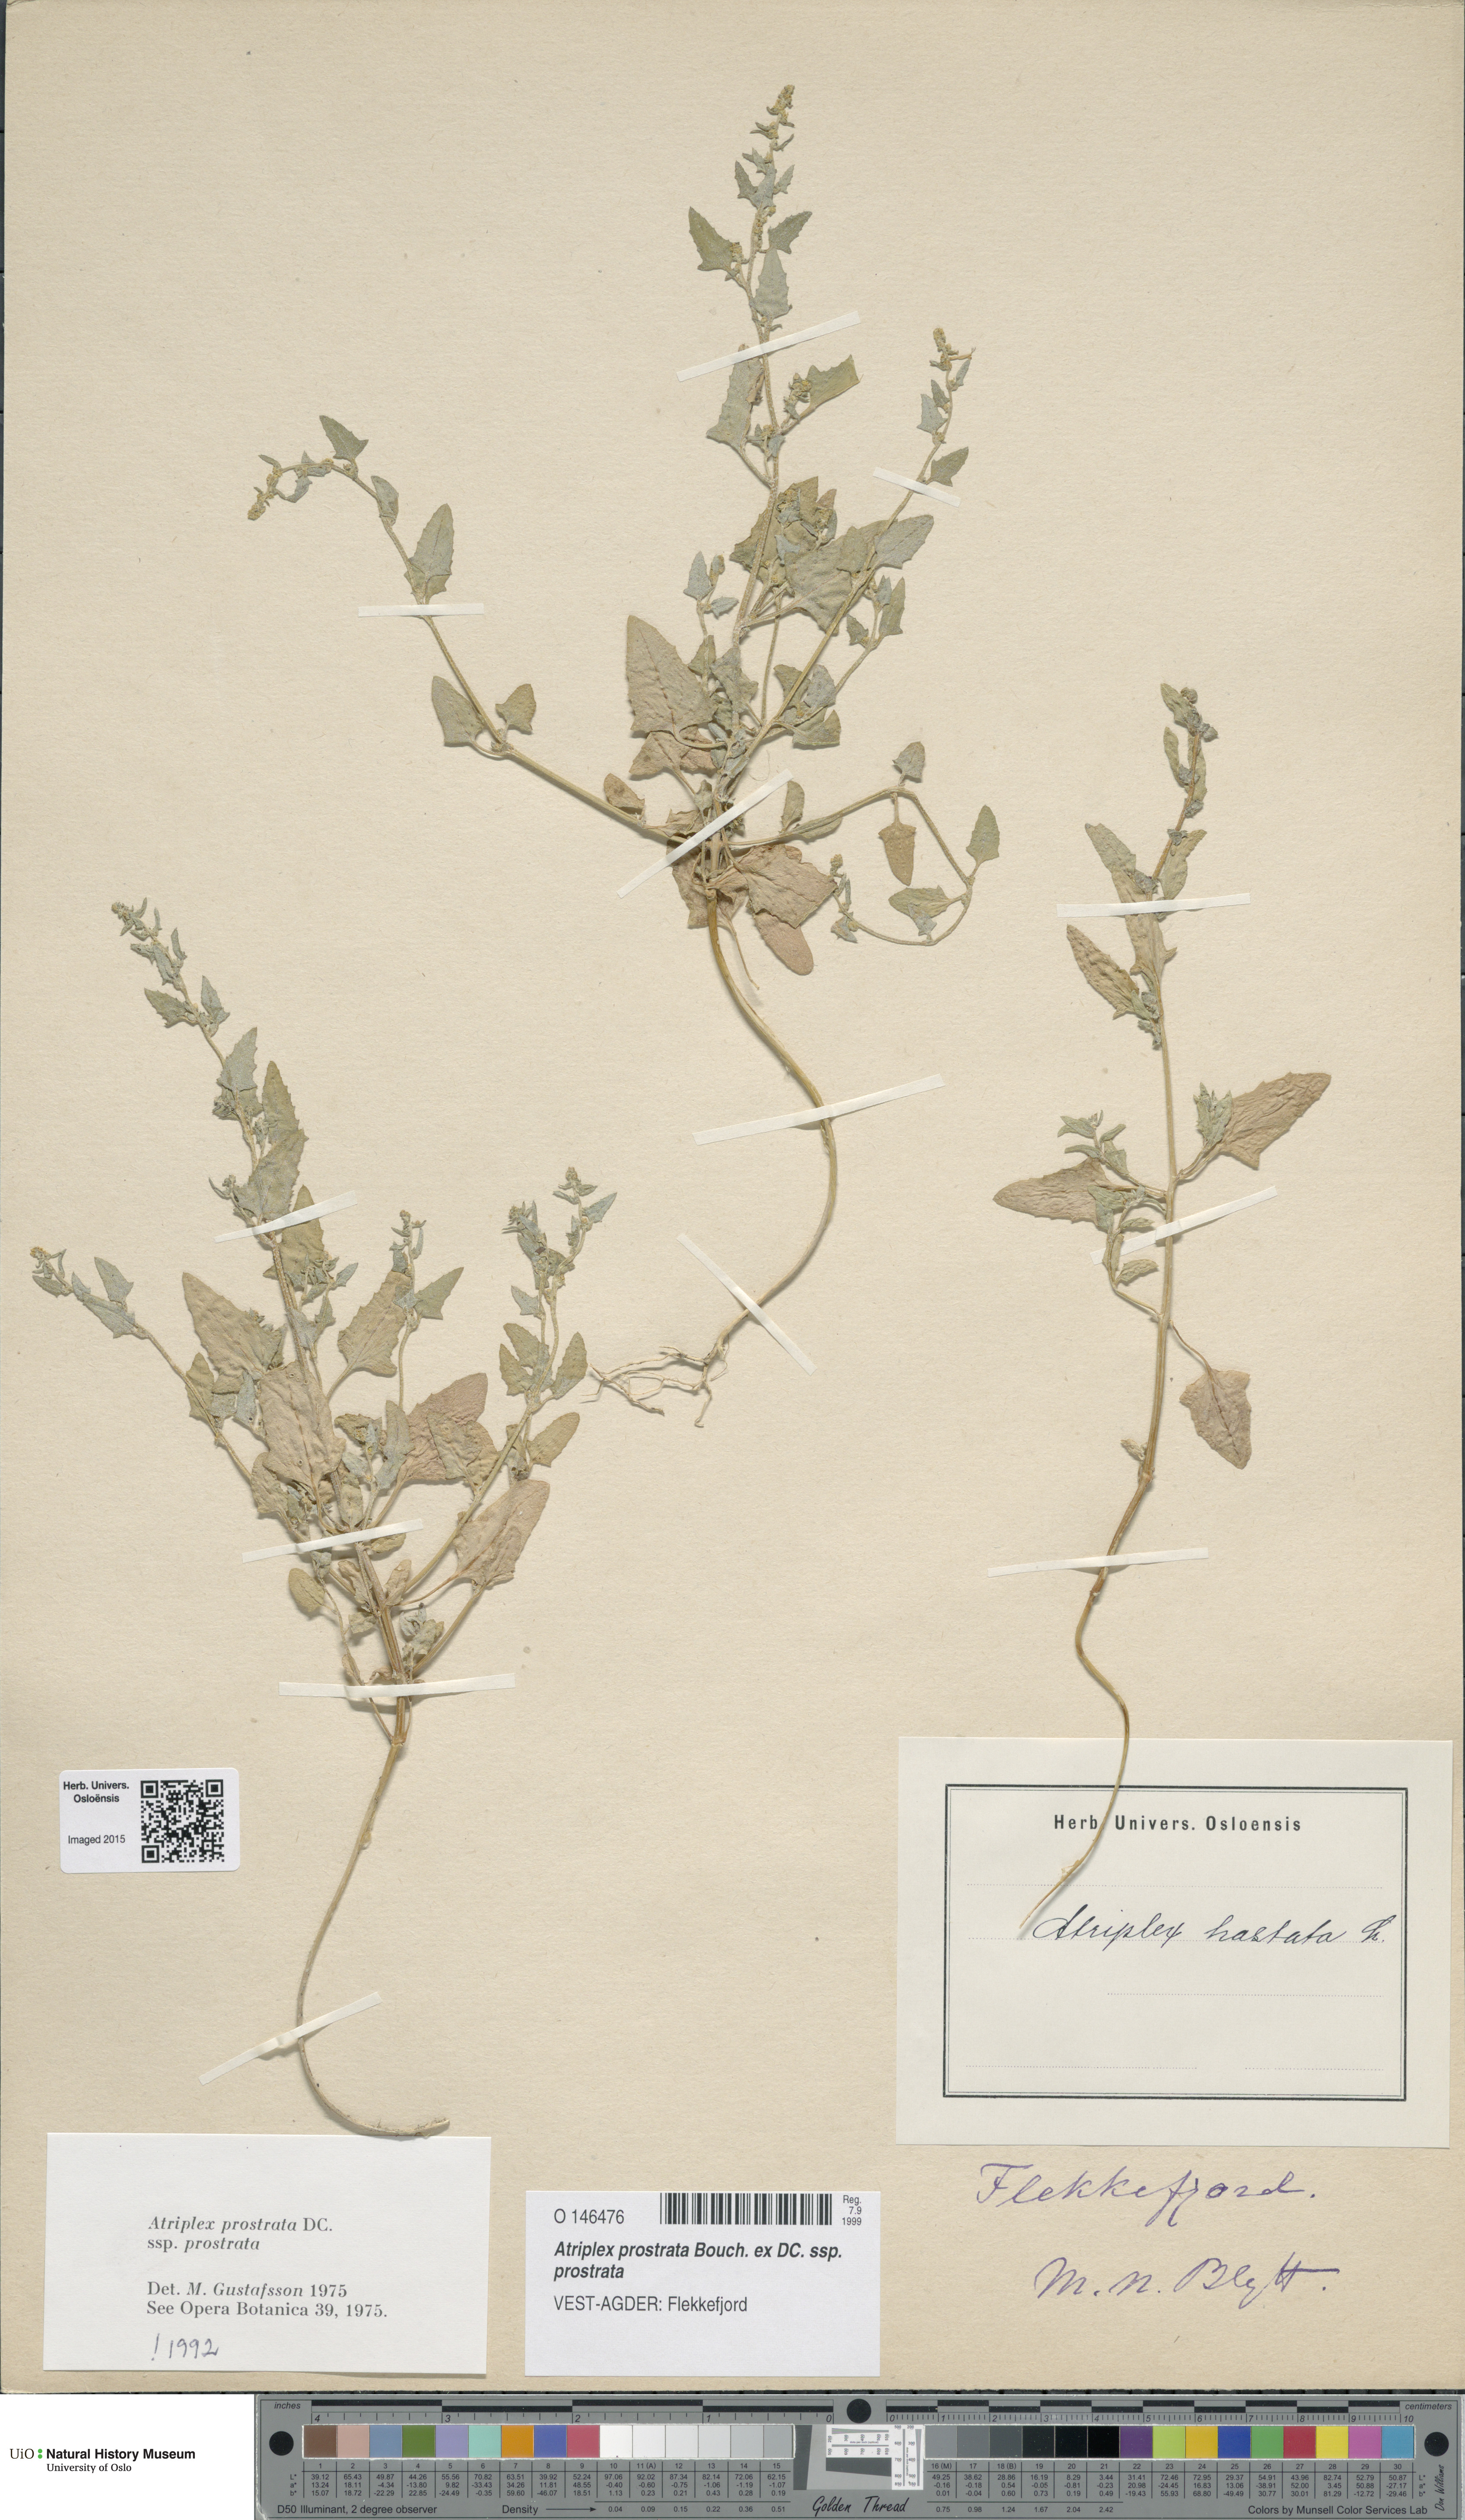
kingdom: Plantae
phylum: Tracheophyta
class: Magnoliopsida
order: Caryophyllales
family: Amaranthaceae
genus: Atriplex
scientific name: Atriplex prostrata
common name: Spear-leaved orache
